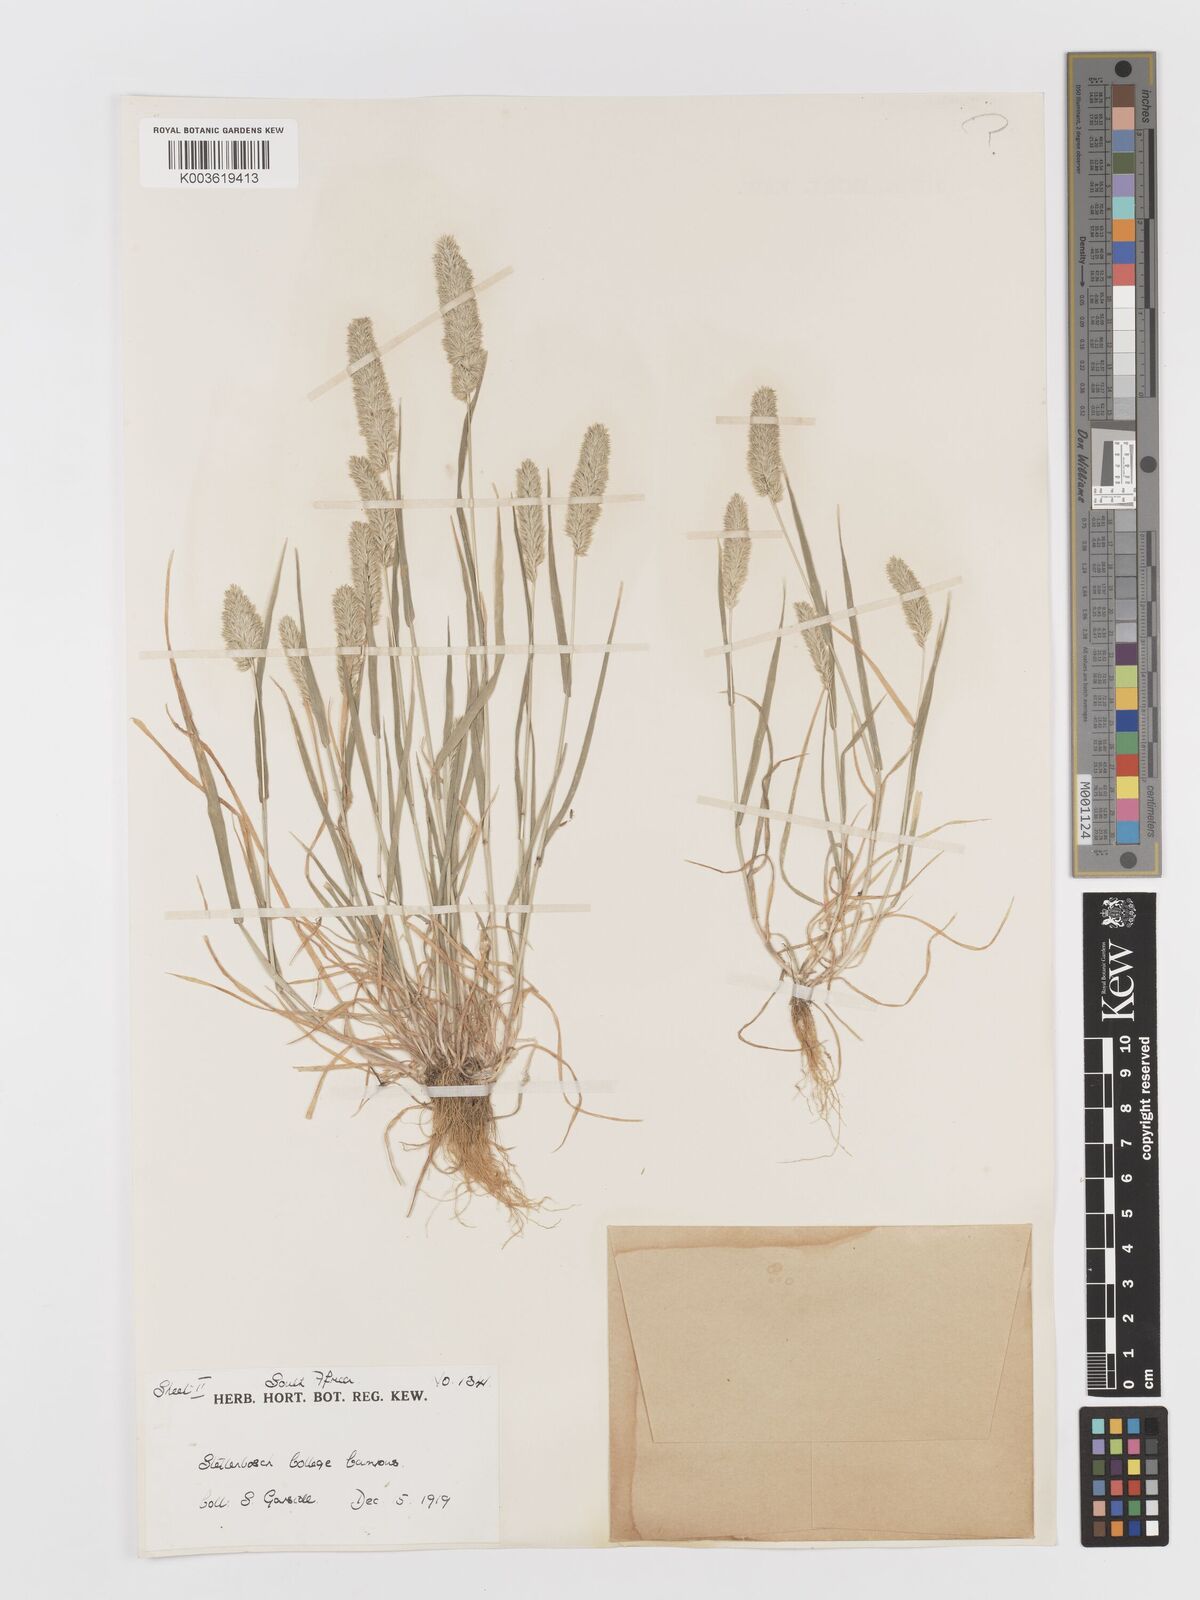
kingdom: Plantae
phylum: Tracheophyta
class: Liliopsida
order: Poales
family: Poaceae
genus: Rostraria
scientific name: Rostraria cristata
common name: Mediterranean hair-grass
